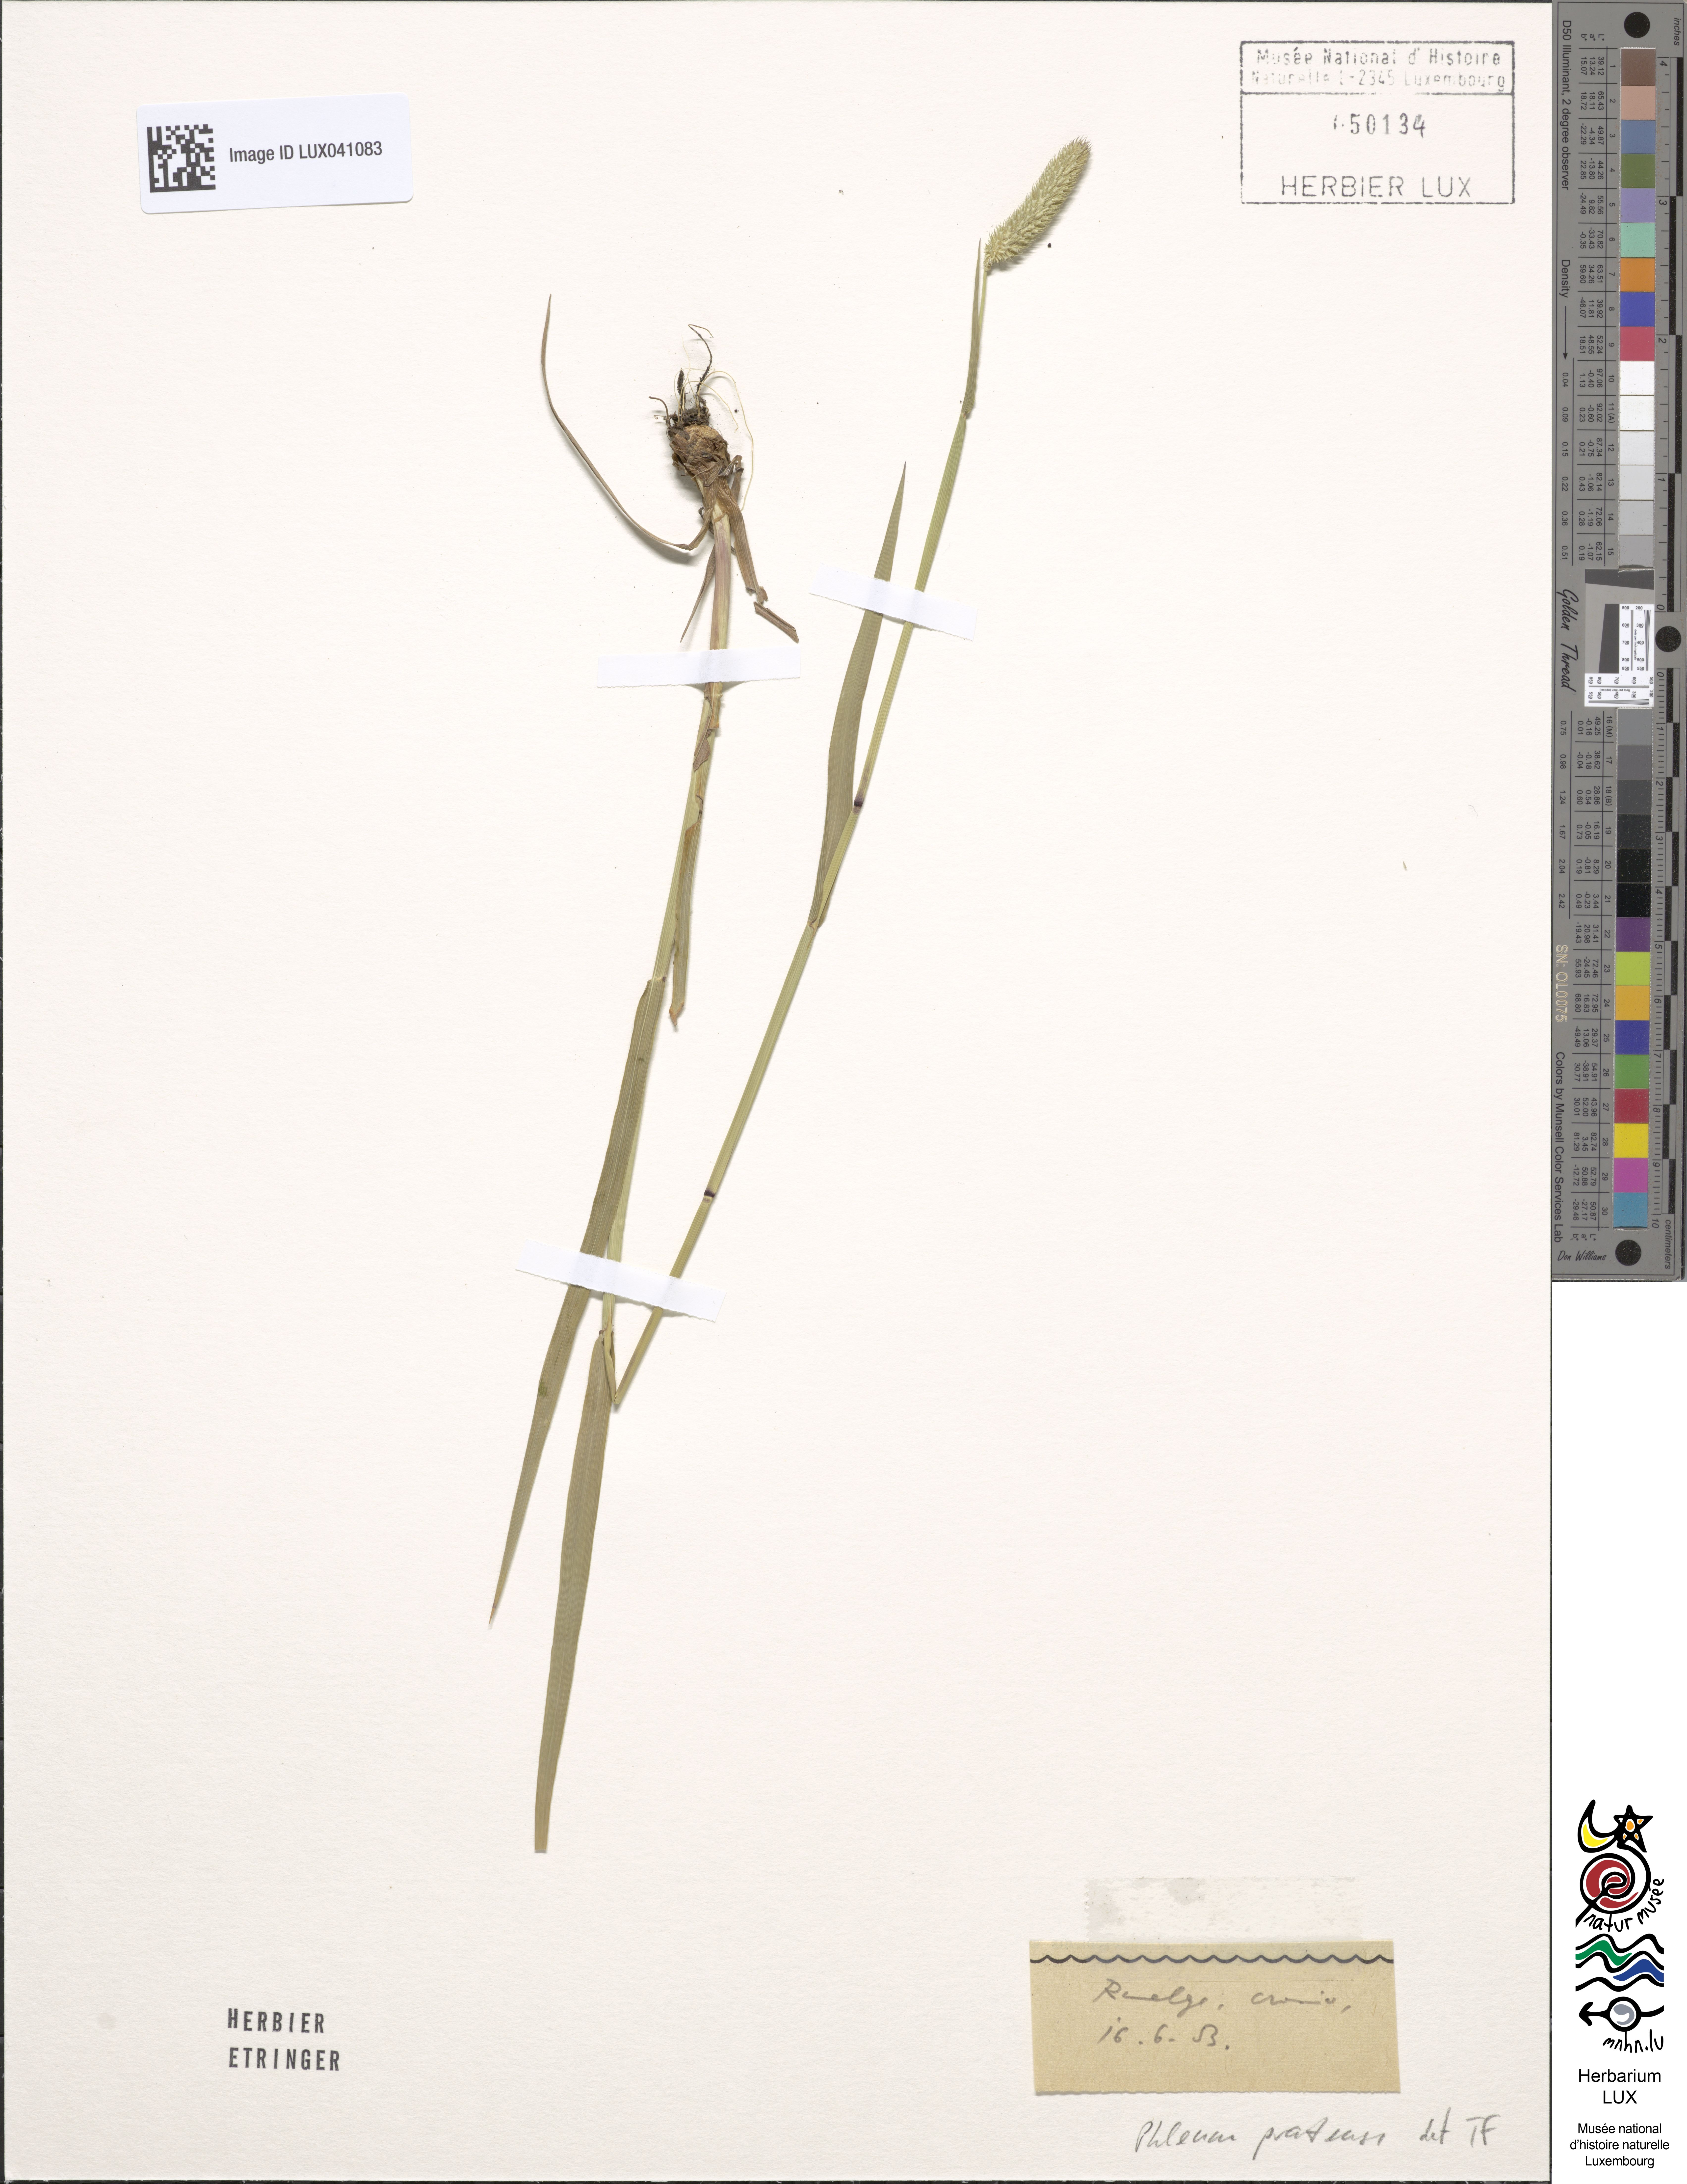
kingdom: Plantae
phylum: Tracheophyta
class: Liliopsida
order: Poales
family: Poaceae
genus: Phleum
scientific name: Phleum pratense
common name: Timothy grass
